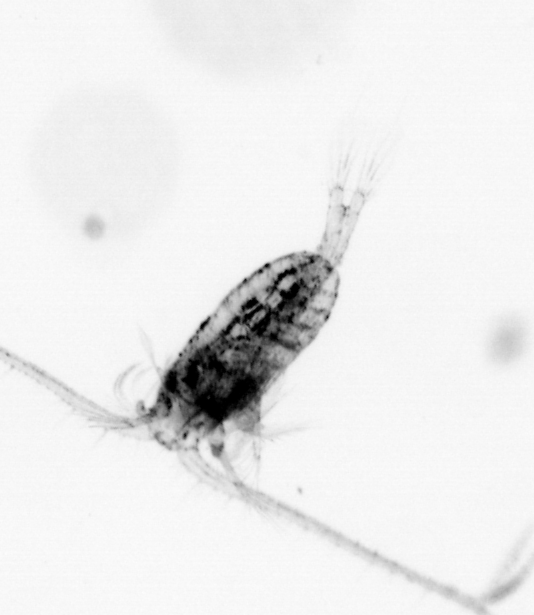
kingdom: Animalia
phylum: Arthropoda
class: Copepoda
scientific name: Copepoda
